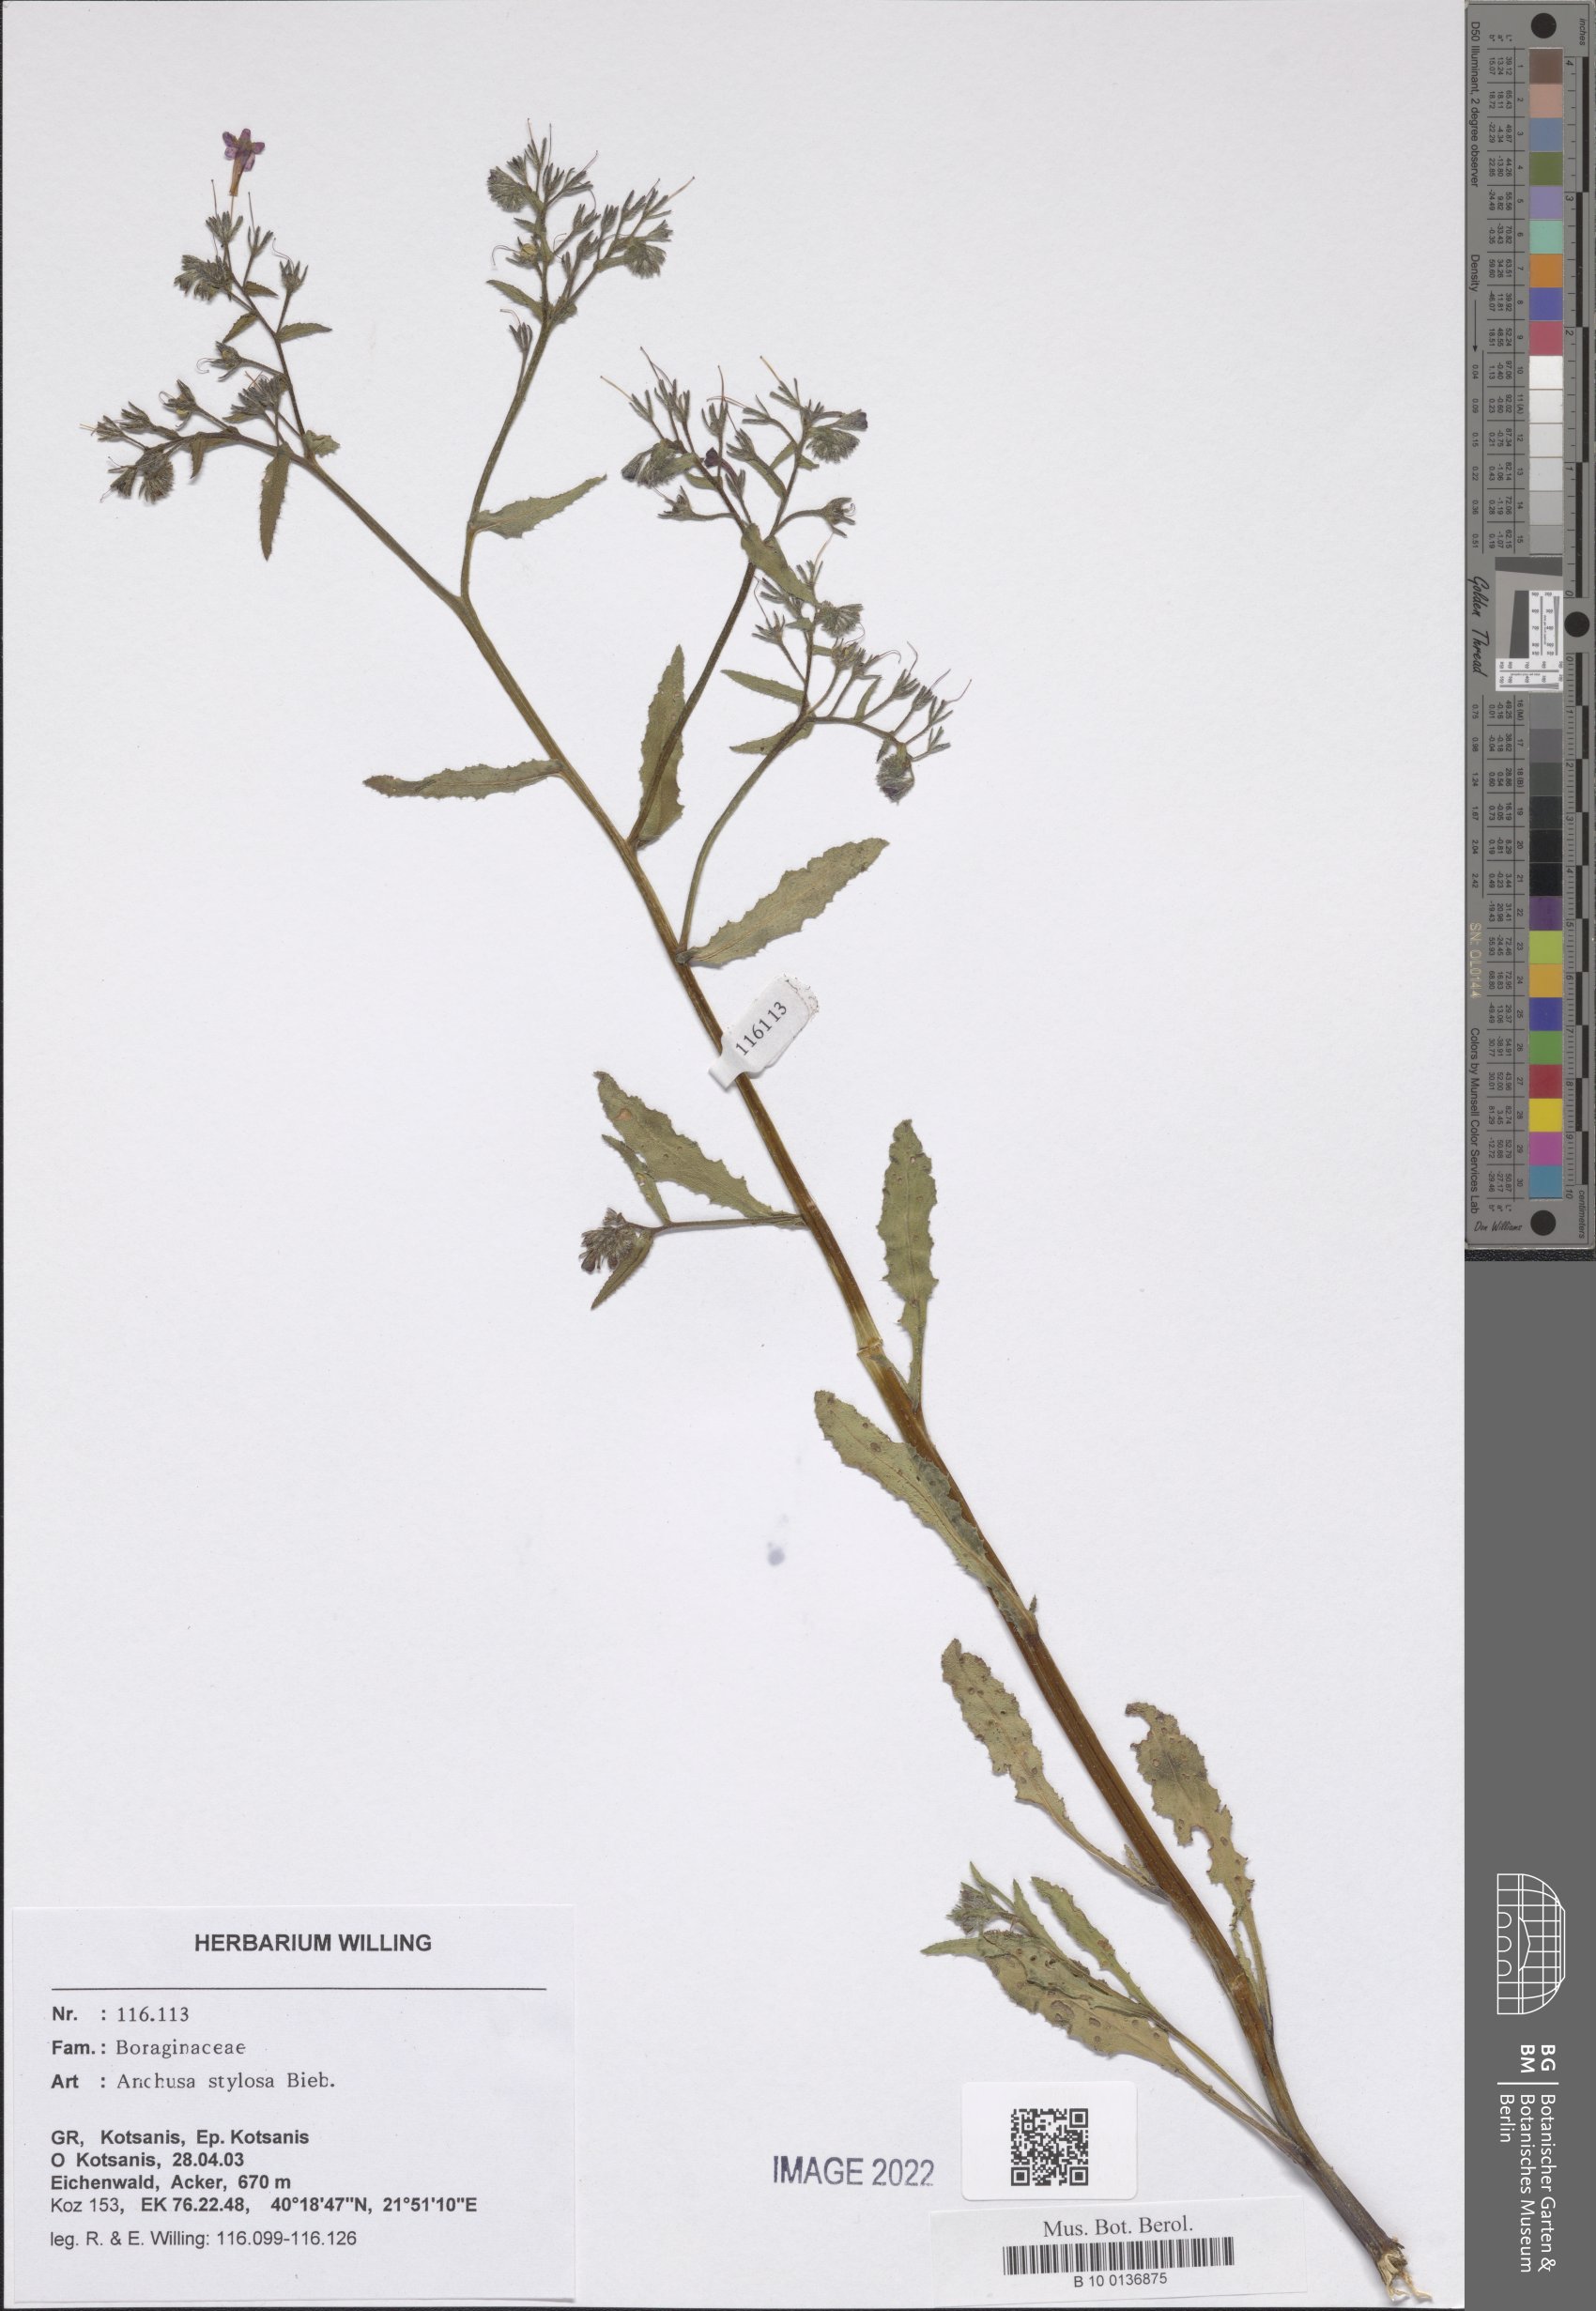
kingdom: Plantae
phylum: Tracheophyta
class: Magnoliopsida
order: Boraginales
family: Boraginaceae
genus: Anchusa
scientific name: Anchusa stylosa
